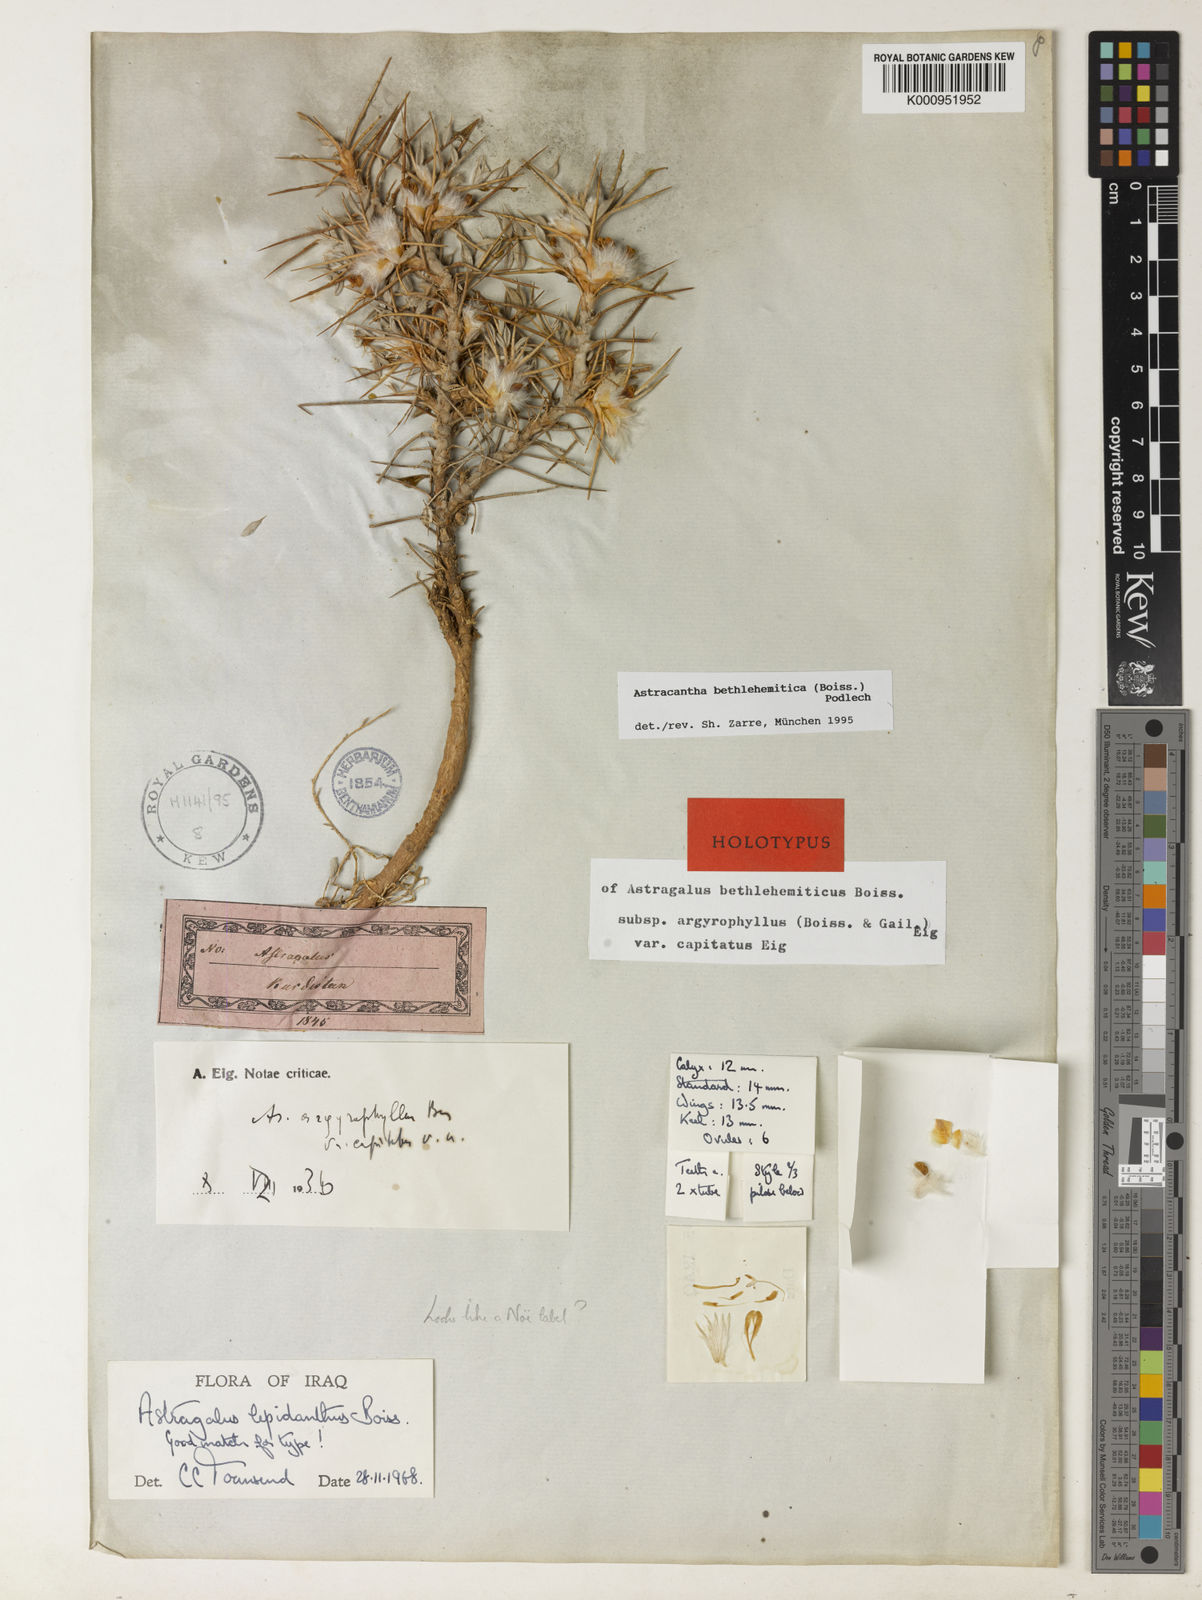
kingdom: Plantae
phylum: Tracheophyta
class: Magnoliopsida
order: Fabales
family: Fabaceae
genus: Astragalus
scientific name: Astragalus bethlehemiticus
